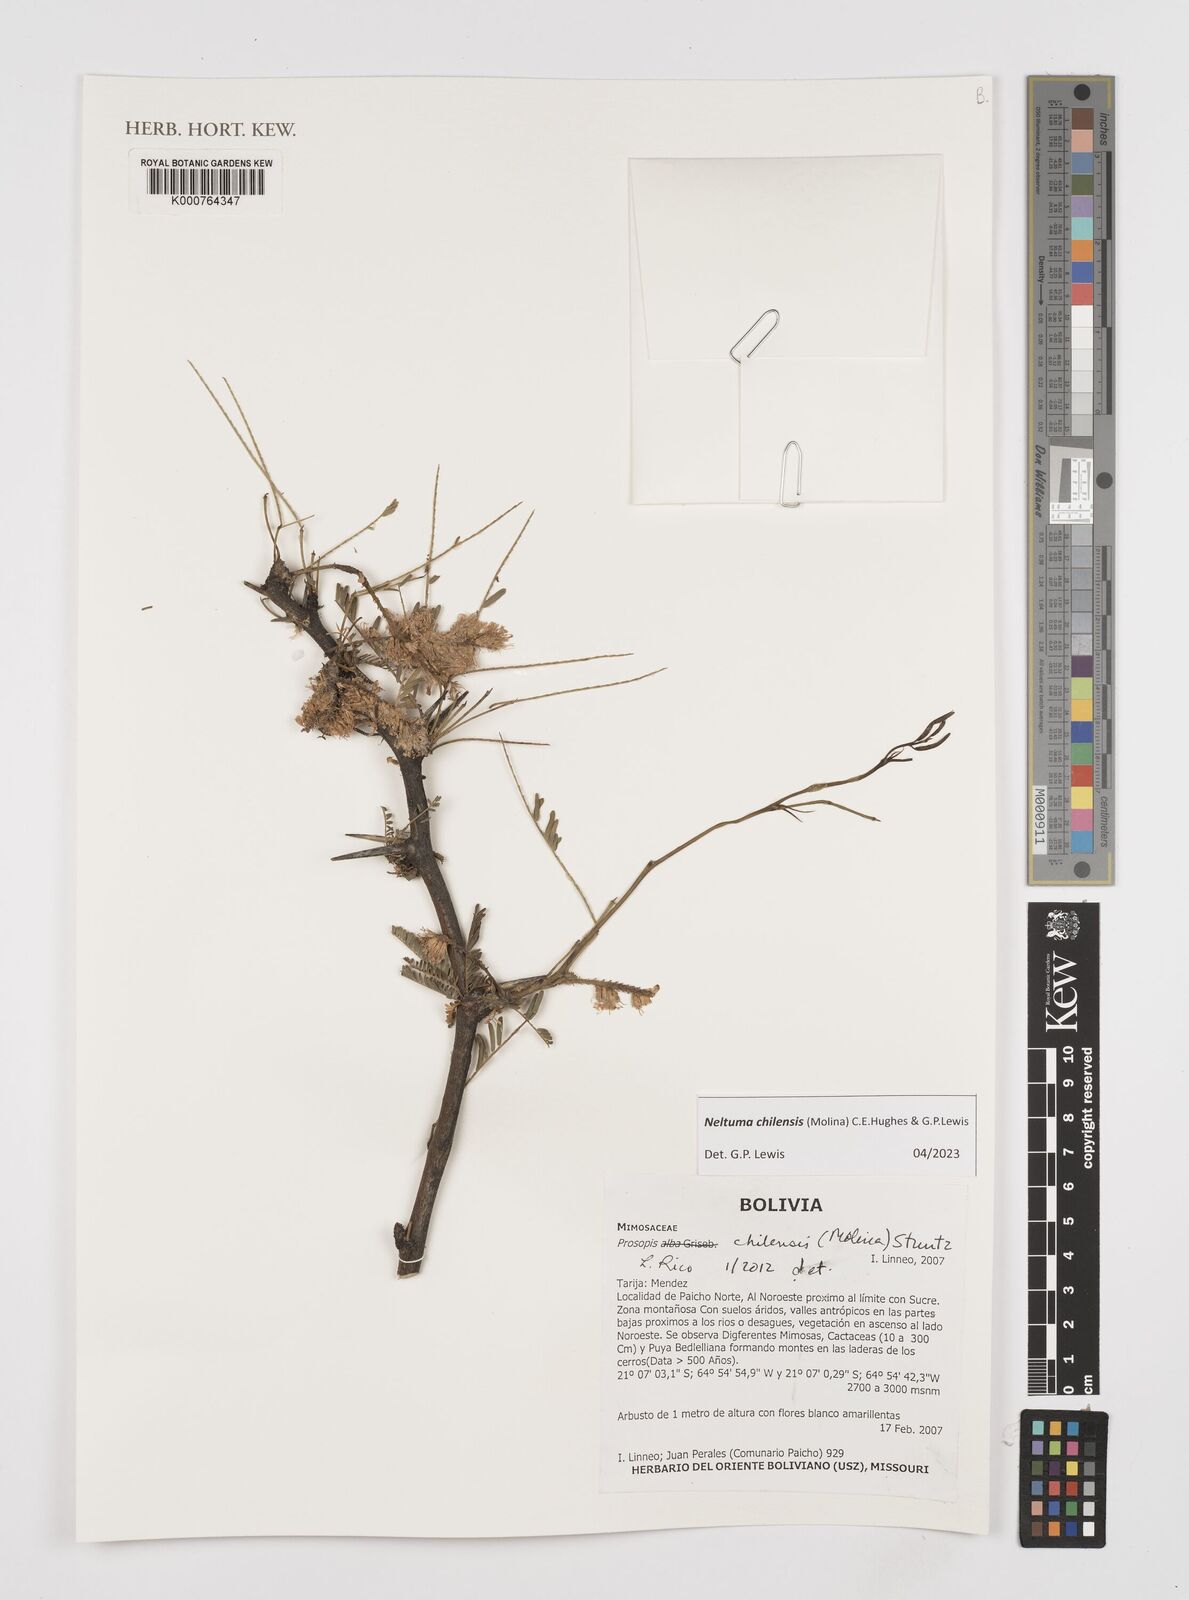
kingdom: Plantae
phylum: Tracheophyta
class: Magnoliopsida
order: Fabales
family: Fabaceae
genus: Prosopis
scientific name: Prosopis chilensis
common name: Chilean algarrobo
